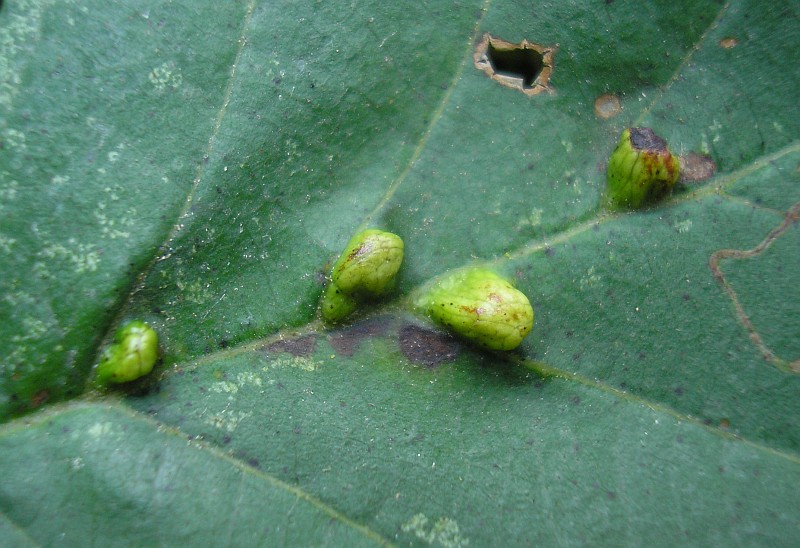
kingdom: Animalia
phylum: Arthropoda
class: Arachnida
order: Trombidiformes
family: Eriophyidae
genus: Eriophyes
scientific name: Eriophyes inangulis
